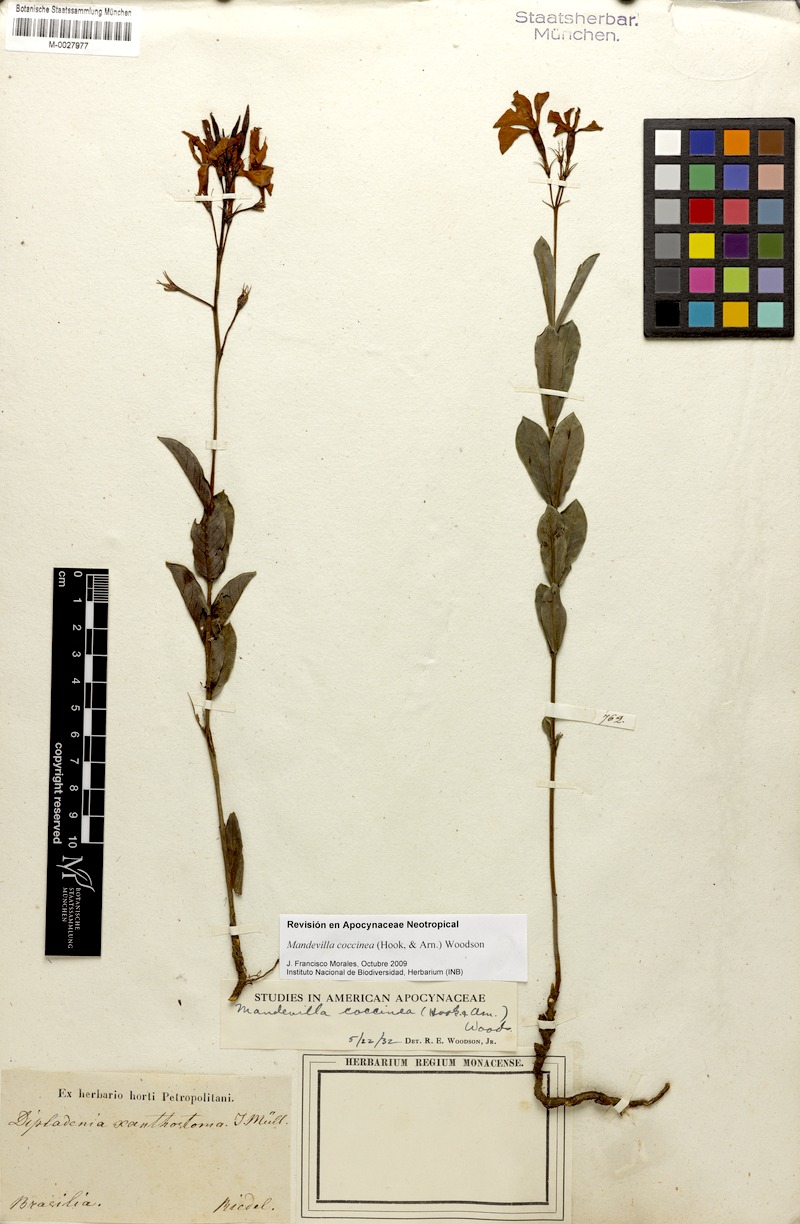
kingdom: Plantae
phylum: Tracheophyta
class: Magnoliopsida
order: Gentianales
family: Apocynaceae
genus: Mandevilla
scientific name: Mandevilla coccinea
